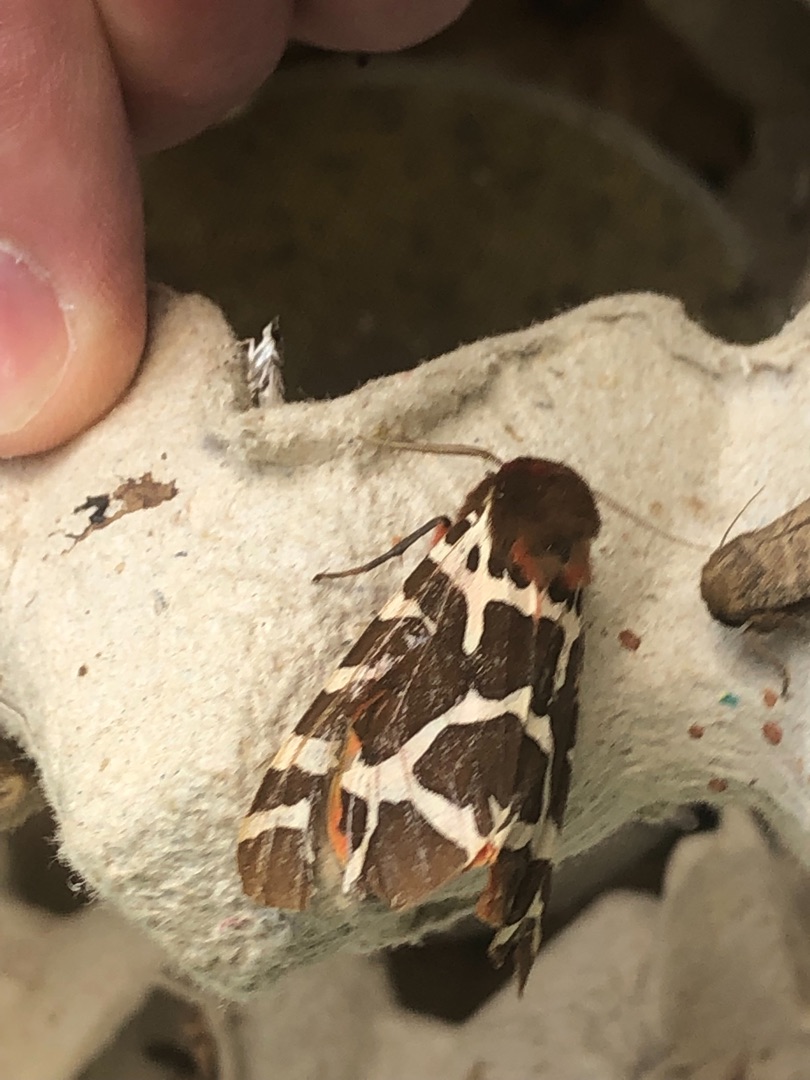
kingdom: Animalia
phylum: Arthropoda
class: Insecta
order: Lepidoptera
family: Erebidae
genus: Arctia
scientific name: Arctia caja
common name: Brun bjørn
